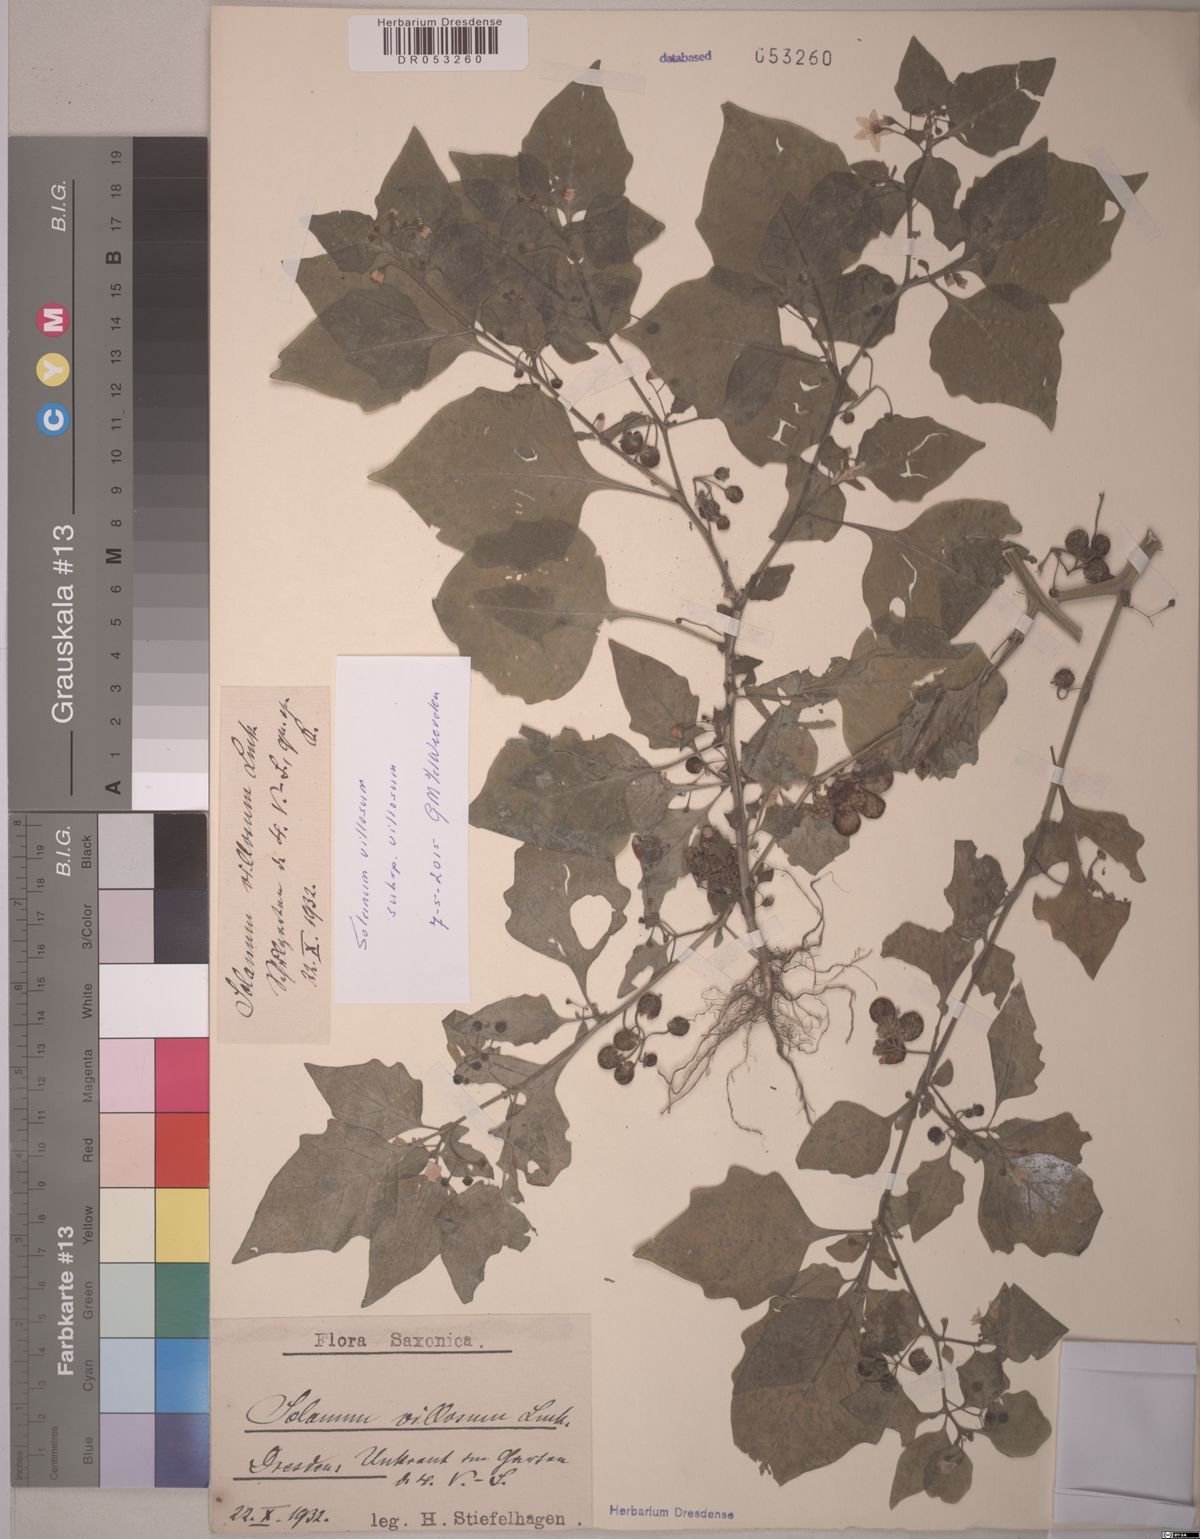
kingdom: Plantae
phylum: Tracheophyta
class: Magnoliopsida
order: Solanales
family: Solanaceae
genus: Solanum
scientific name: Solanum villosum
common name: Red nightshade
